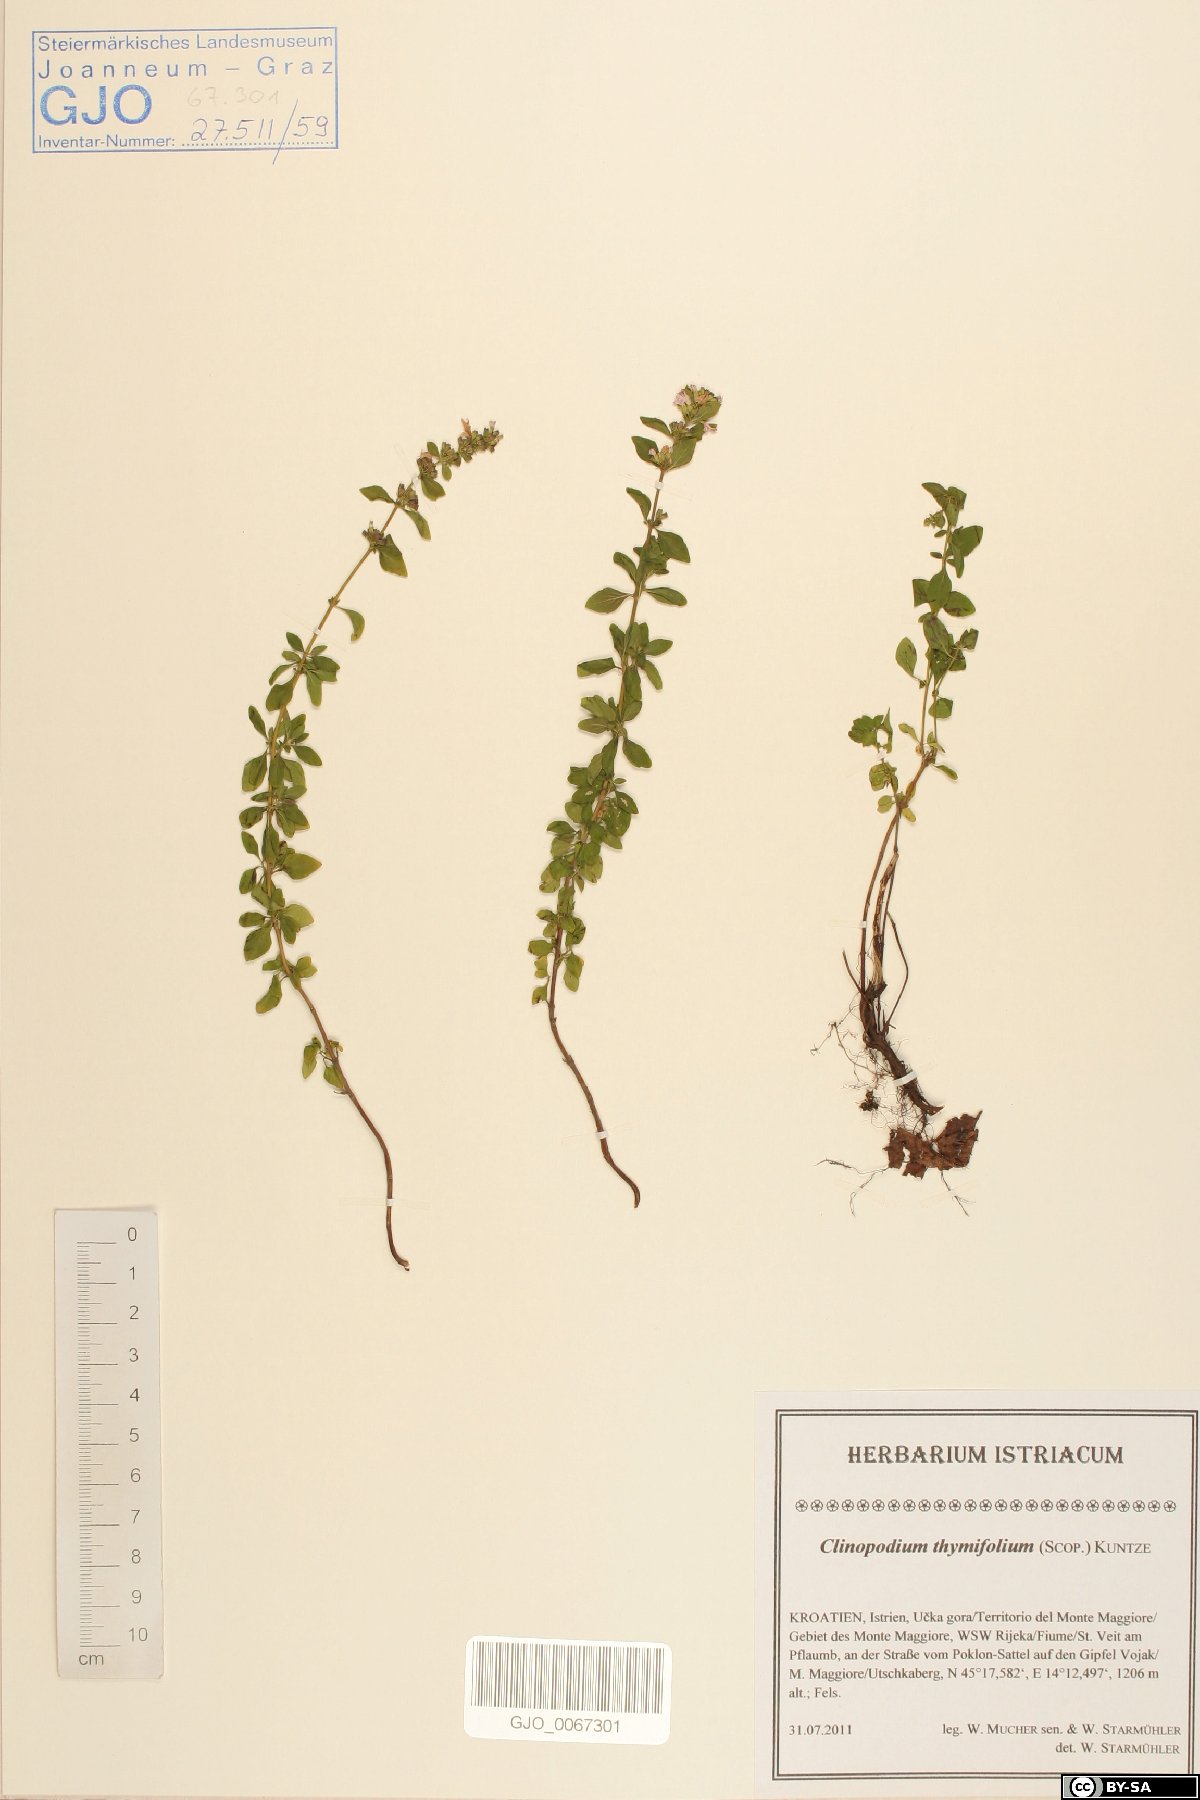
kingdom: Plantae
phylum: Tracheophyta
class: Magnoliopsida
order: Lamiales
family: Lamiaceae
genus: Clinopodium
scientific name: Clinopodium hostii
